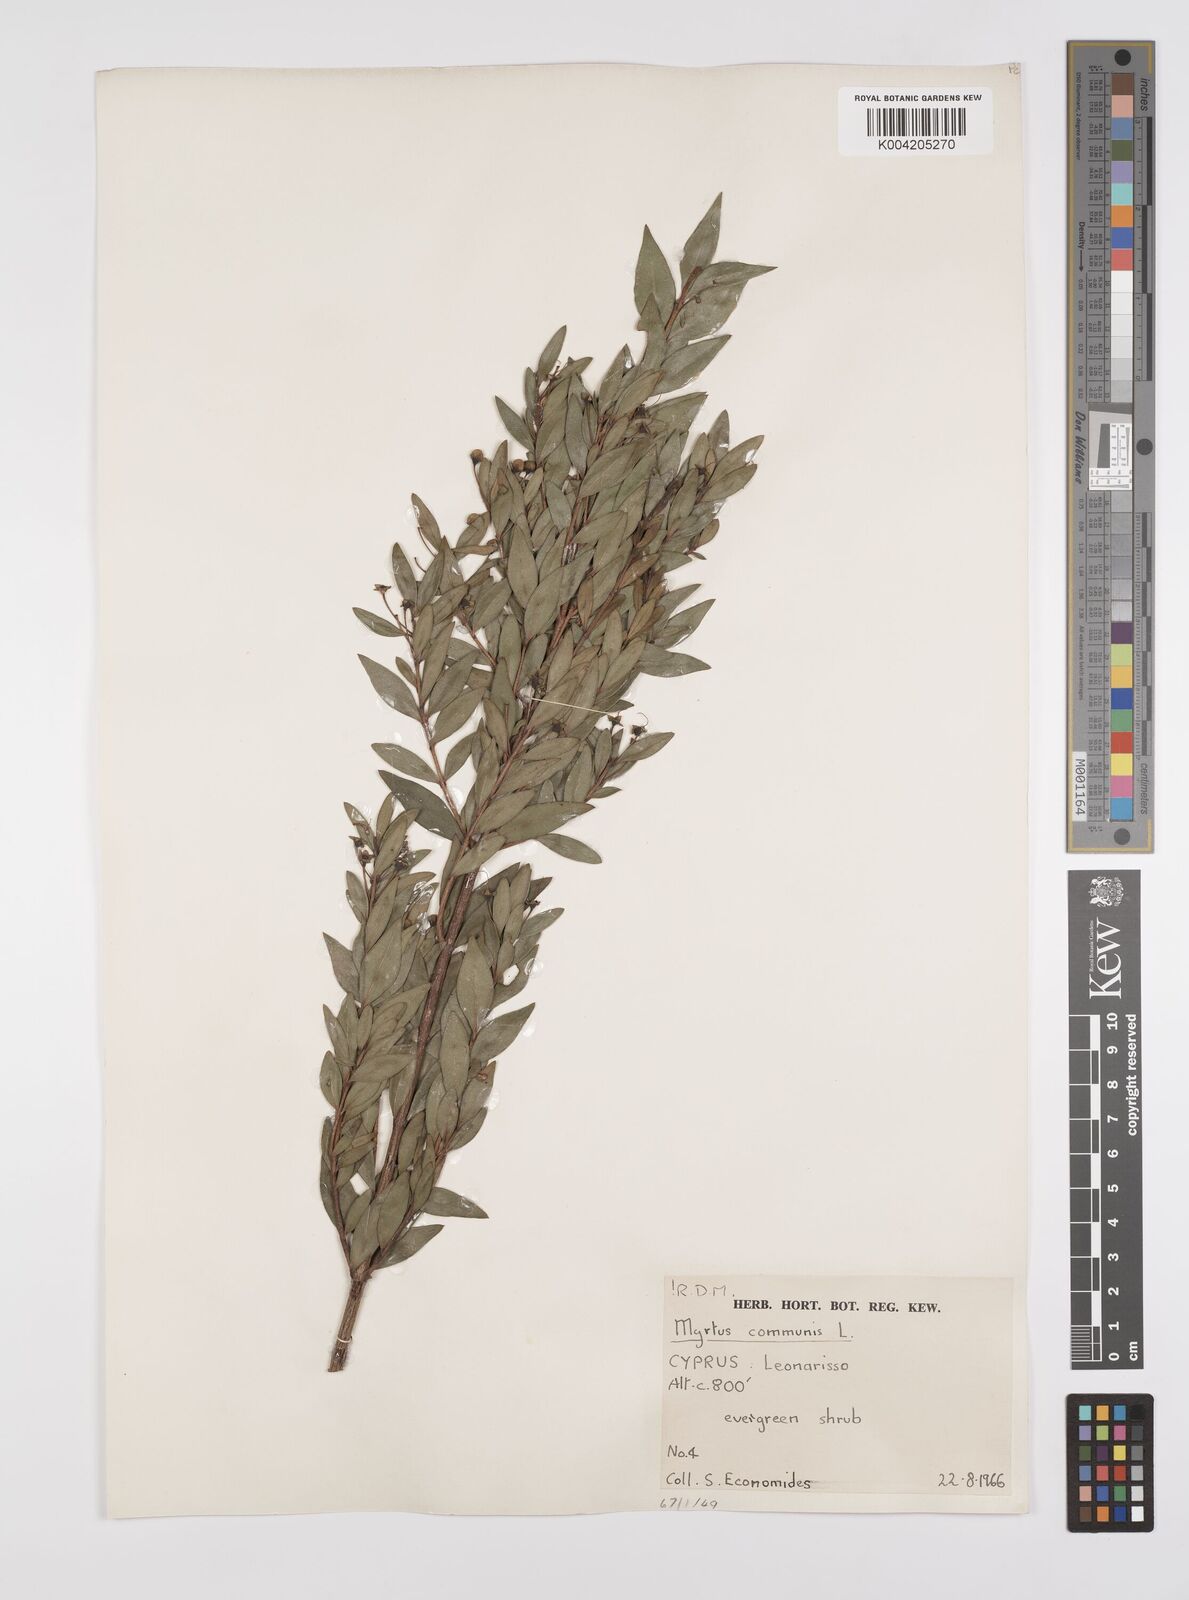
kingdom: Plantae
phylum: Tracheophyta
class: Magnoliopsida
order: Myrtales
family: Myrtaceae
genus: Myrtus
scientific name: Myrtus communis
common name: Myrtle
